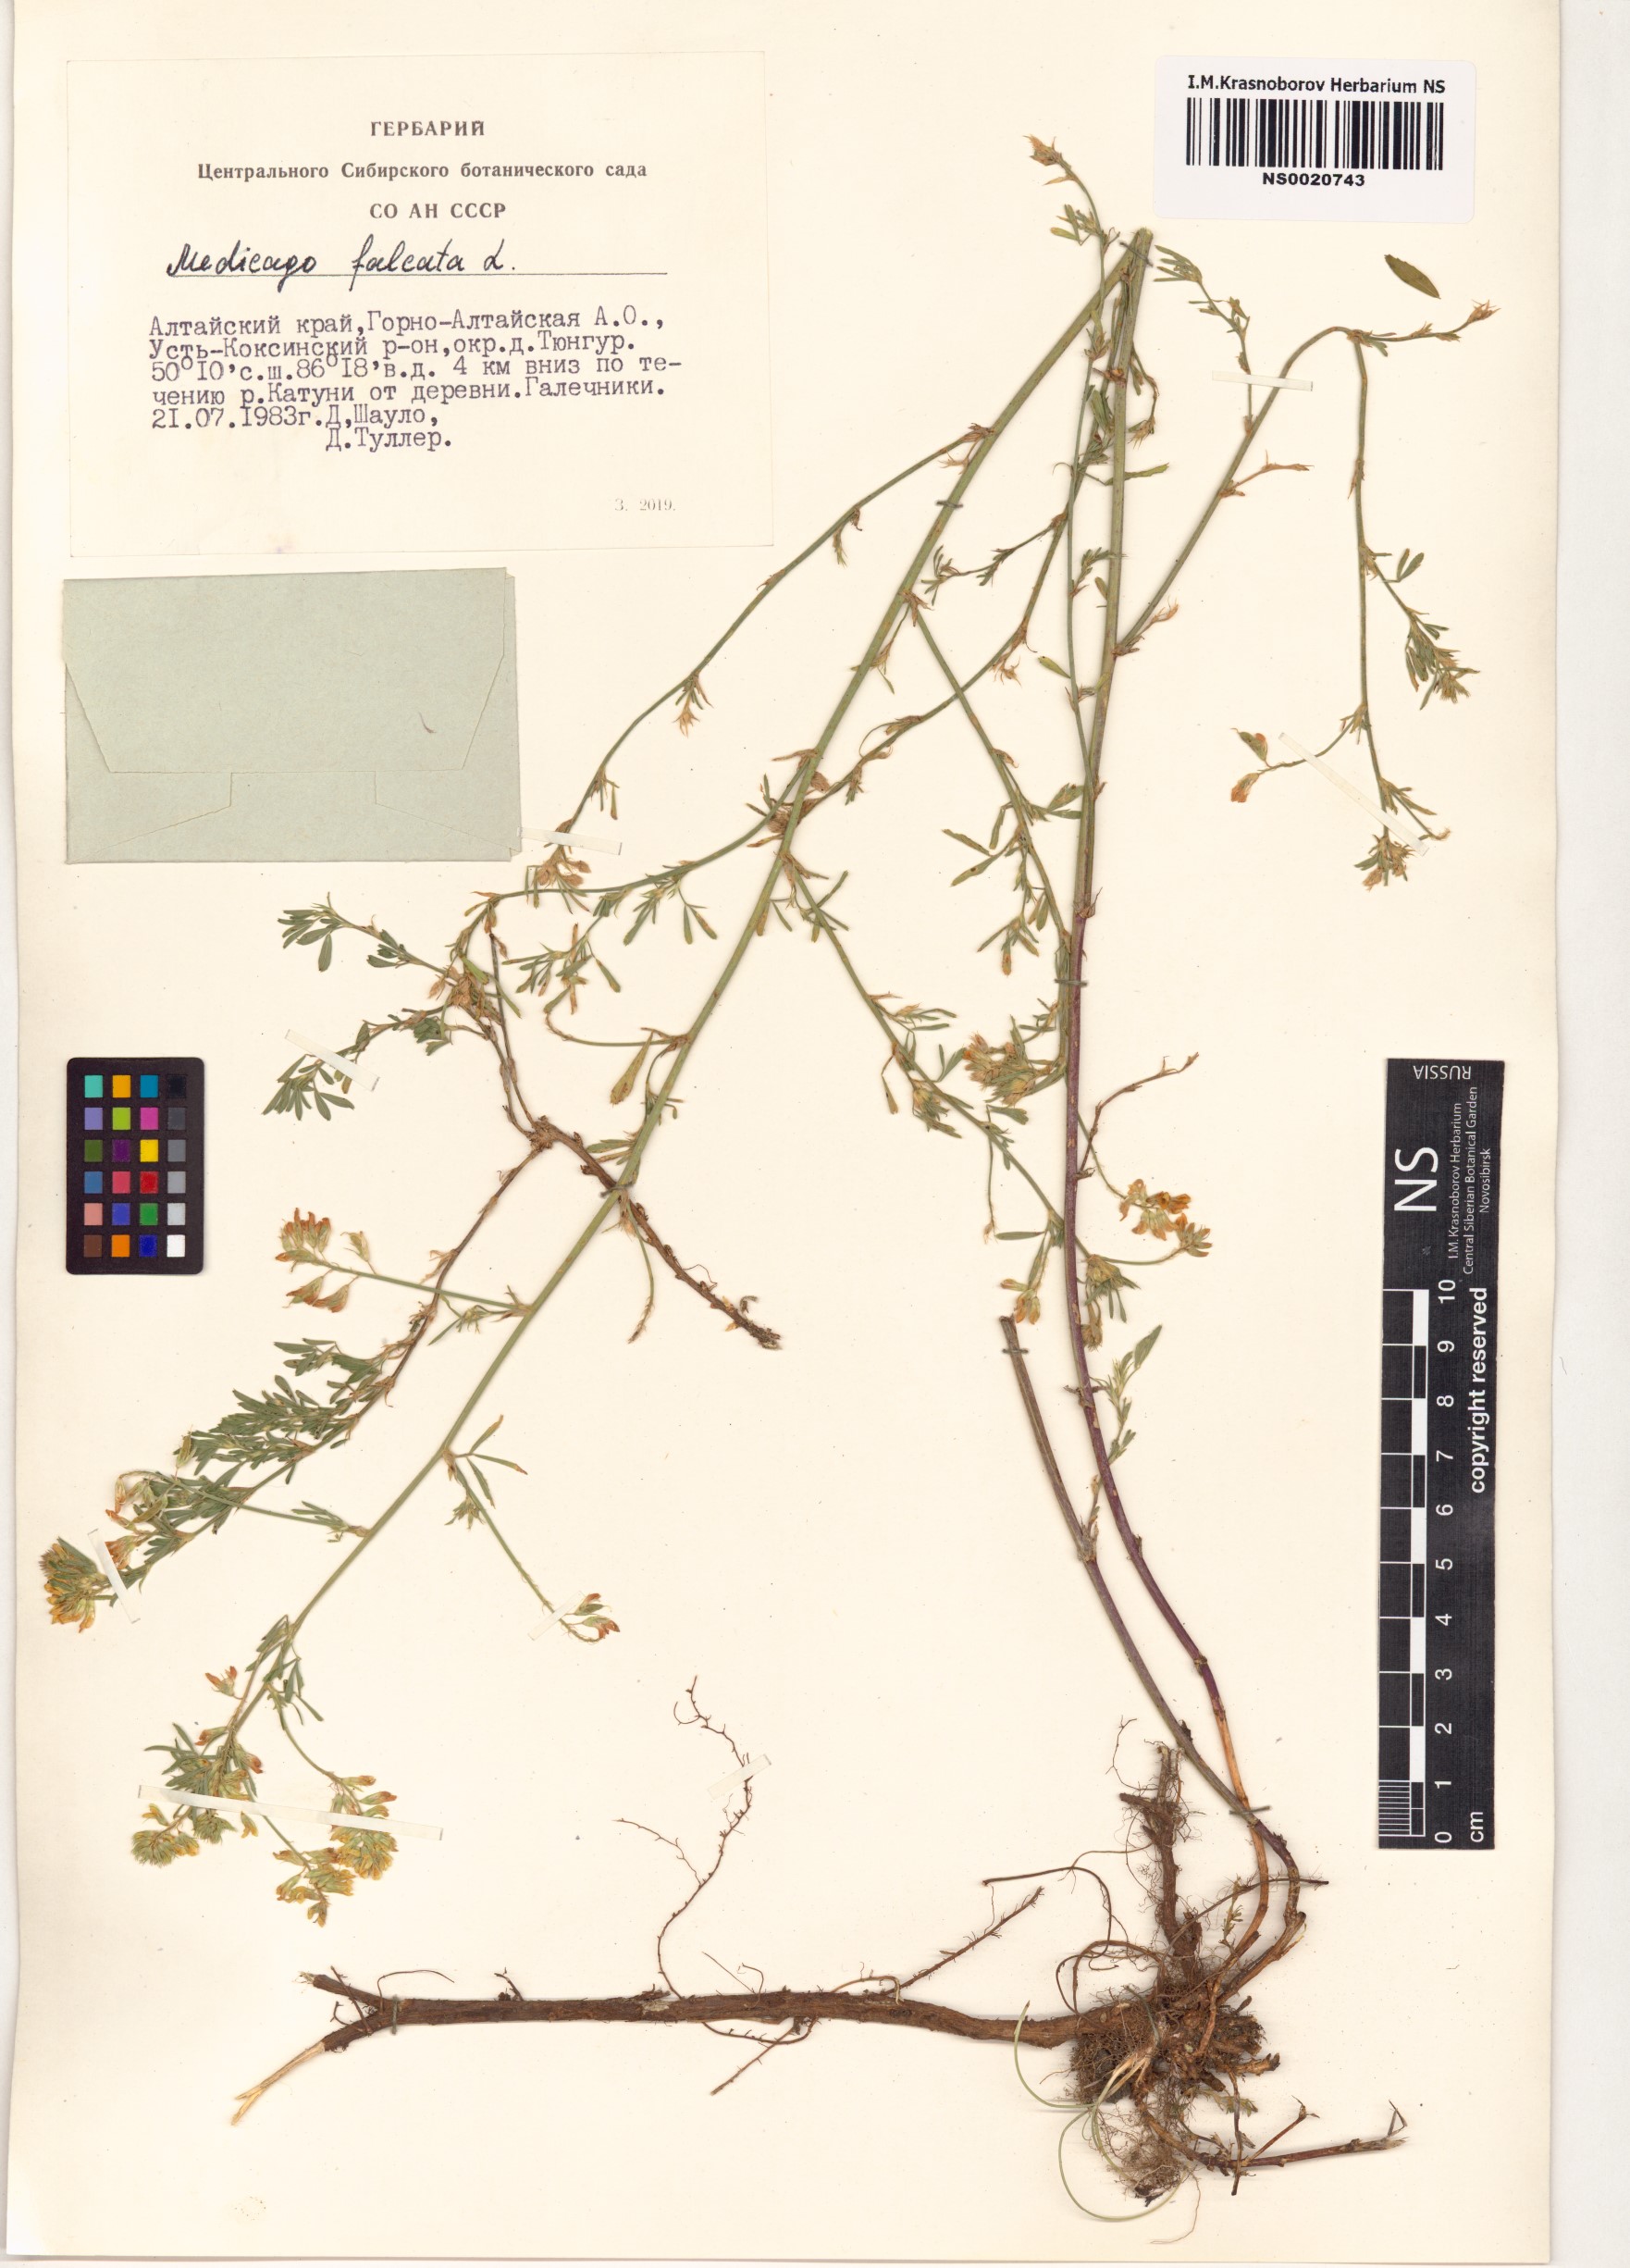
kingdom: Plantae
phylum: Tracheophyta
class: Magnoliopsida
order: Fabales
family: Fabaceae
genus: Medicago
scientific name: Medicago falcata
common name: Sickle medick
